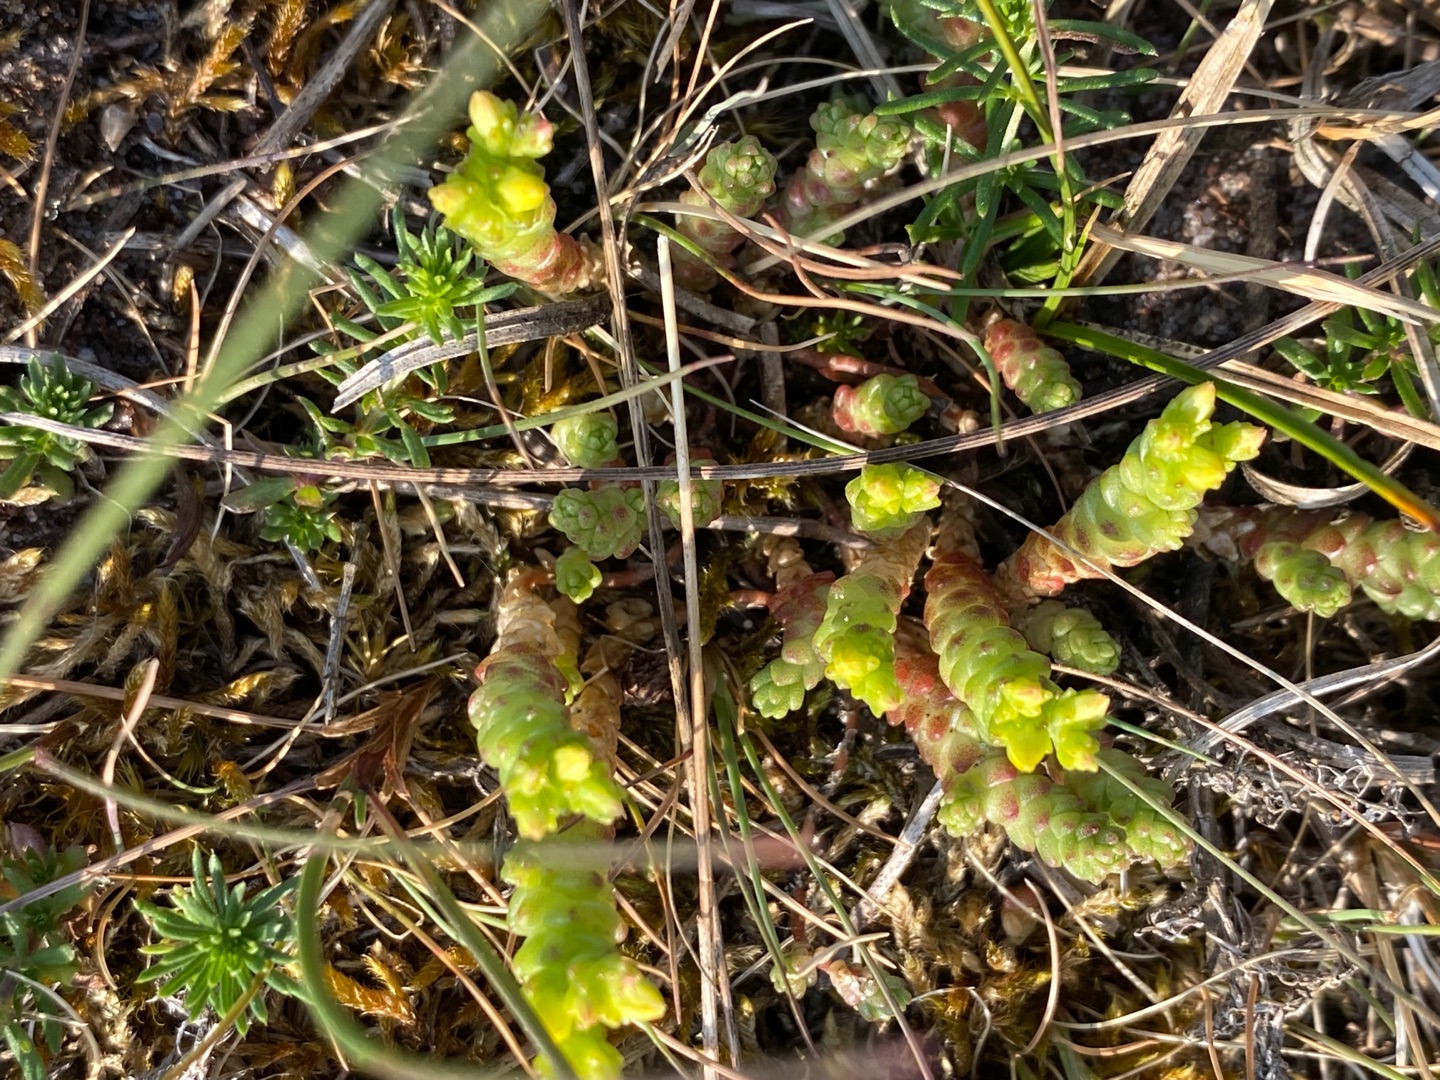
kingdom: Plantae
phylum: Tracheophyta
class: Magnoliopsida
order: Saxifragales
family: Crassulaceae
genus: Sedum
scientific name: Sedum acre
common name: Bidende stenurt
